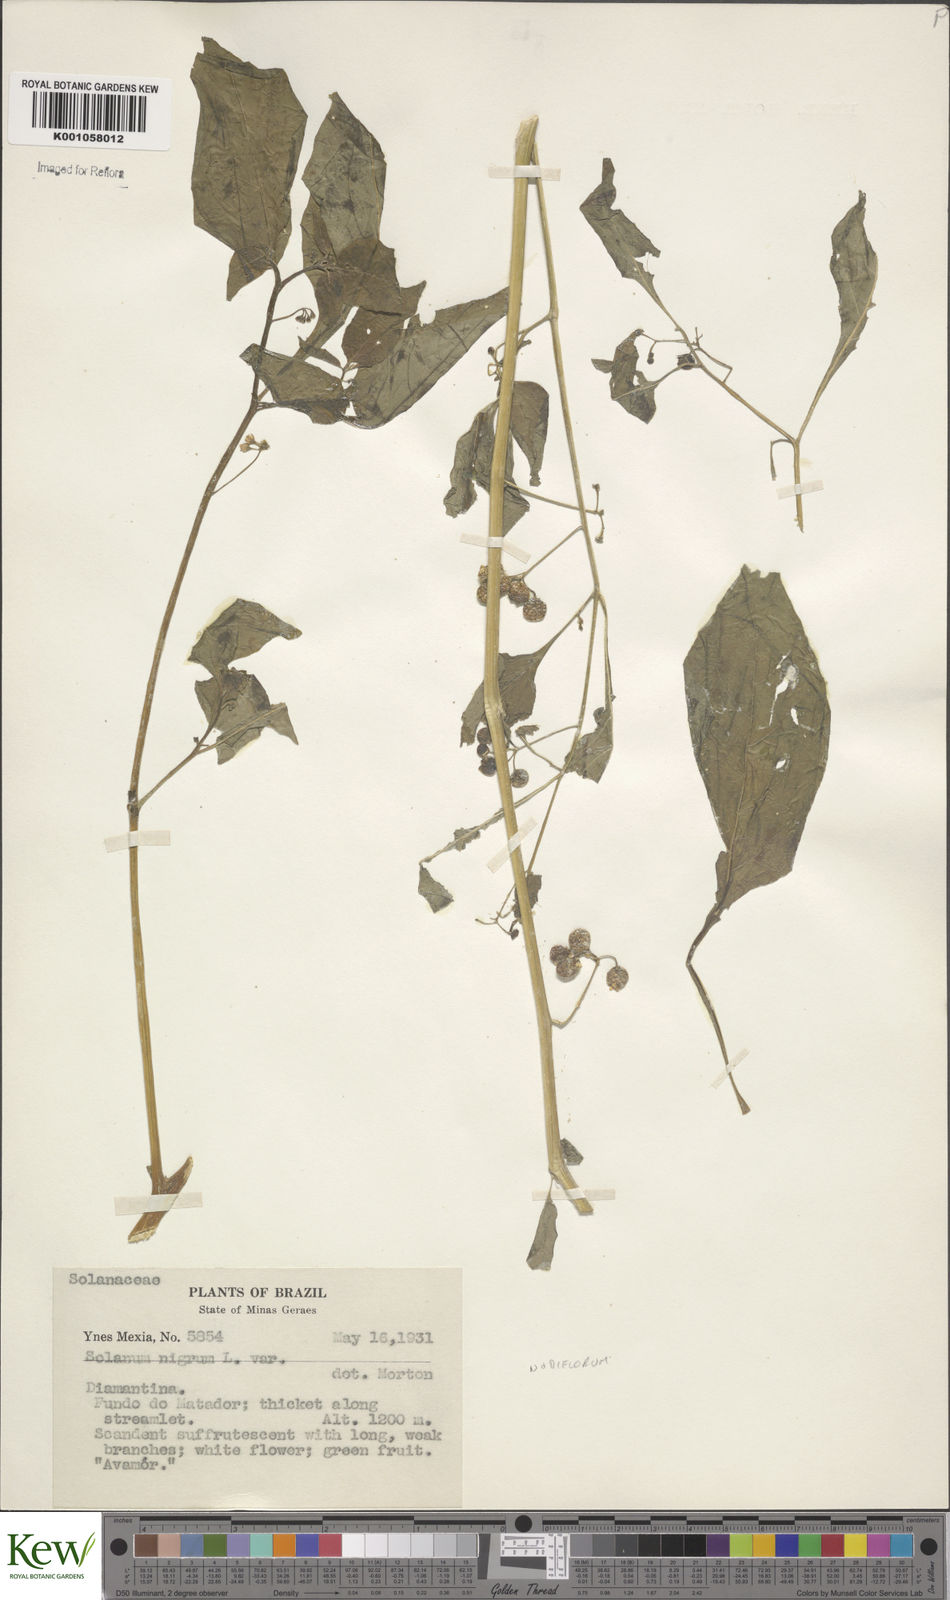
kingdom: Plantae
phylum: Tracheophyta
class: Magnoliopsida
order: Solanales
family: Solanaceae
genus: Solanum
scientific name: Solanum americanum
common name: American black nightshade
